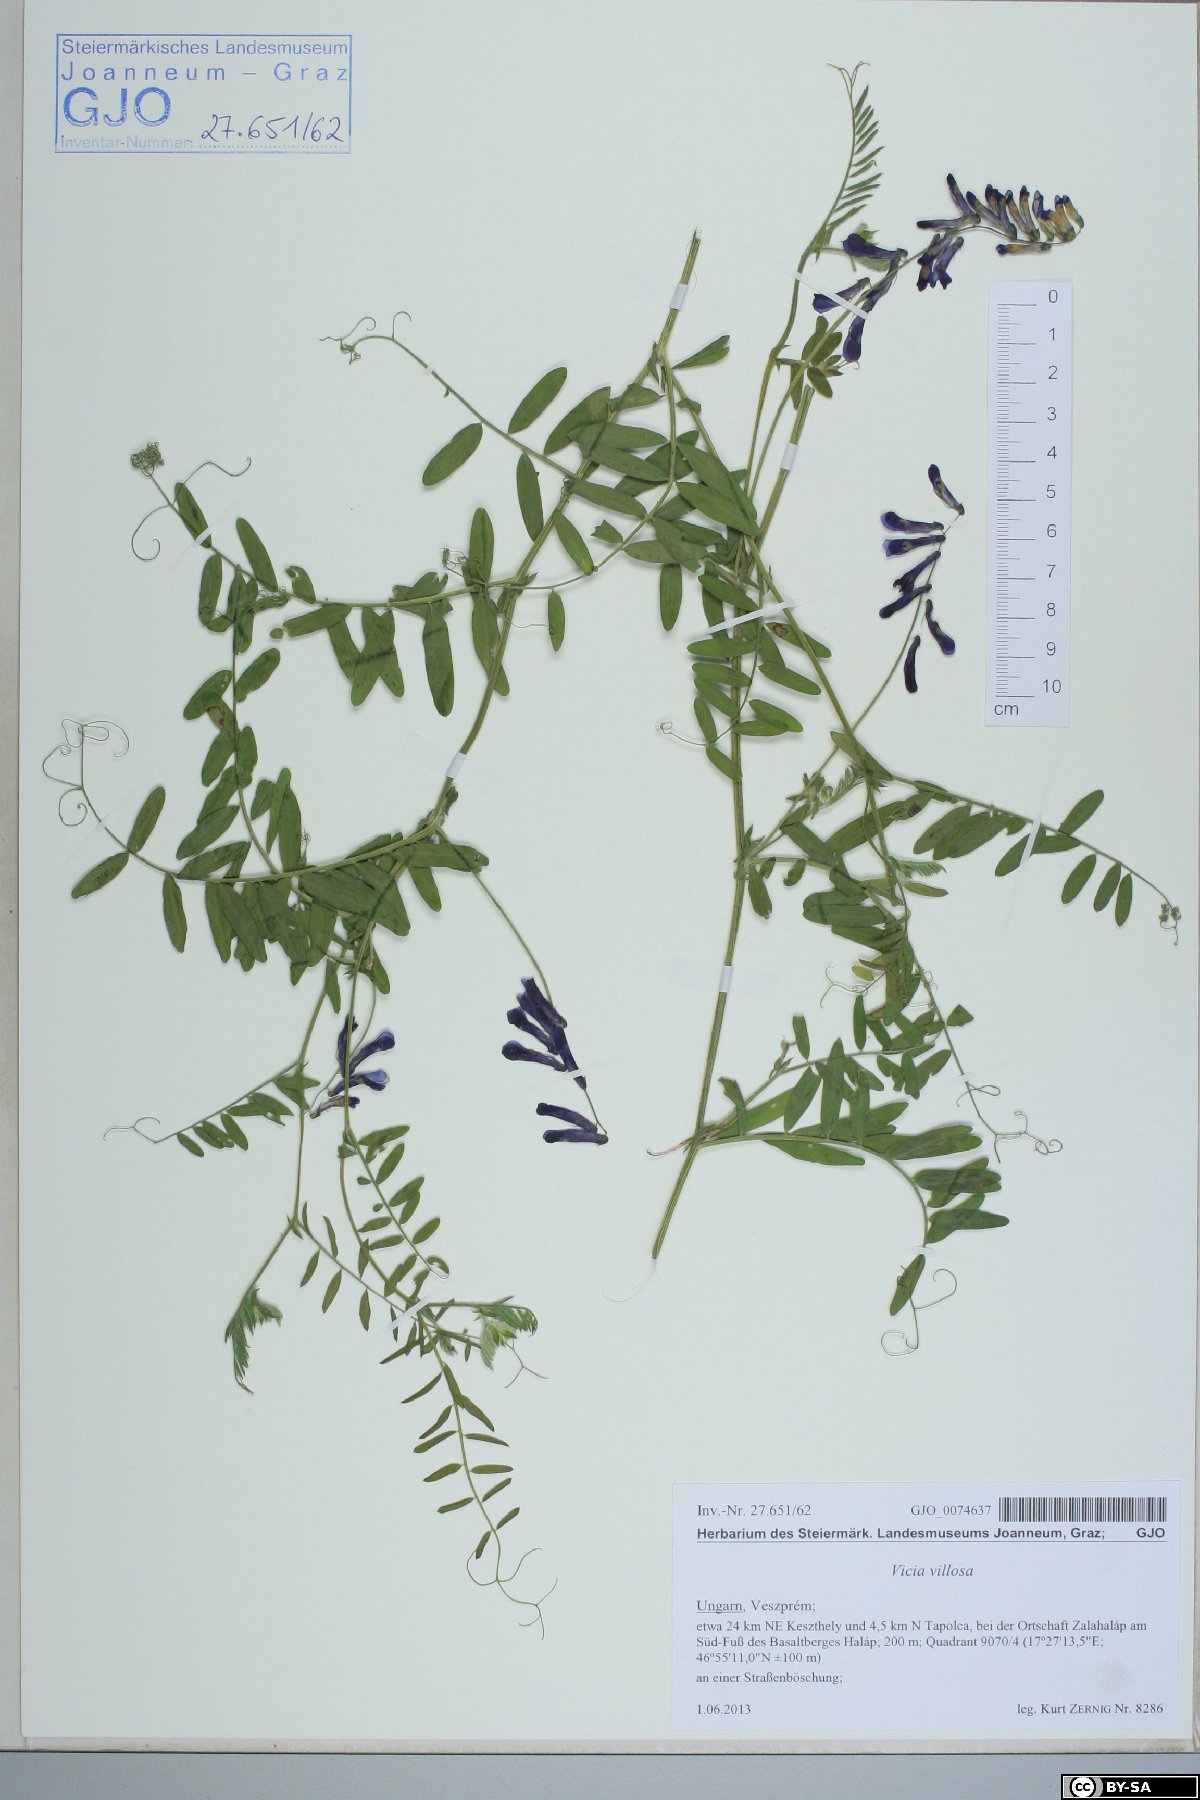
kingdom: Plantae
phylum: Tracheophyta
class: Magnoliopsida
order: Fabales
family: Fabaceae
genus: Vicia
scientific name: Vicia villosa
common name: Fodder vetch
